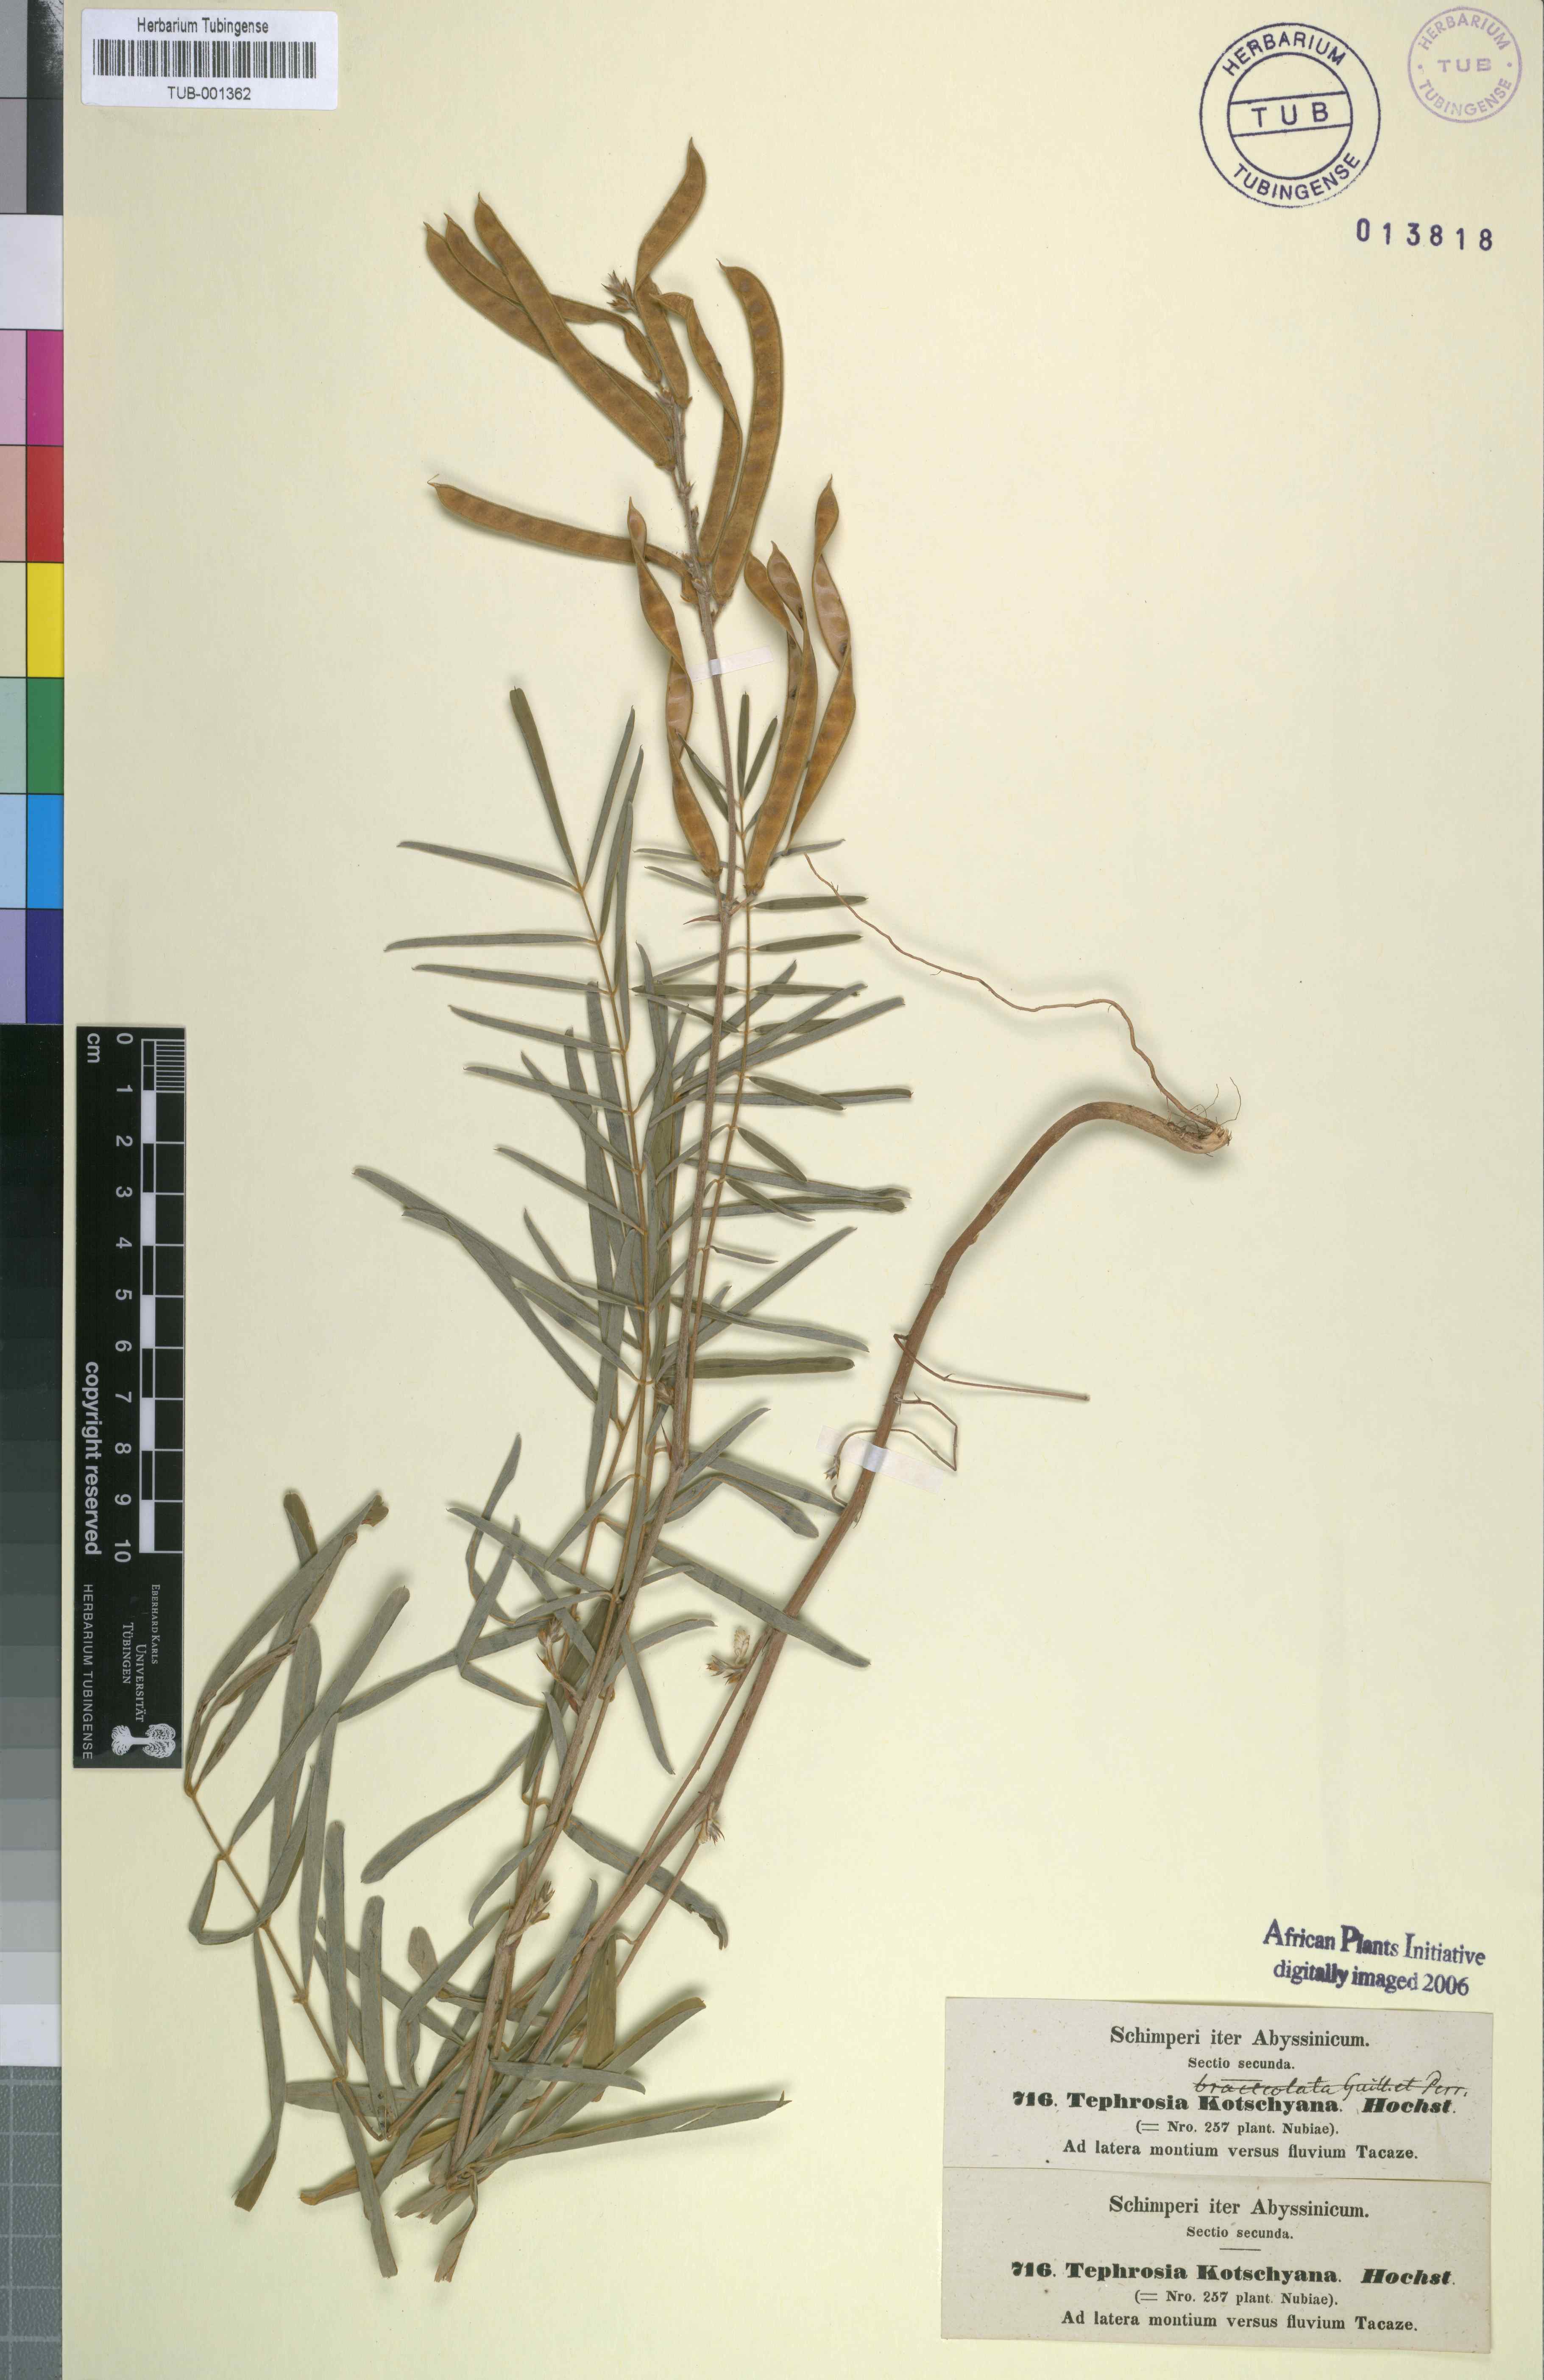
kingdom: Plantae
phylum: Tracheophyta
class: Magnoliopsida
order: Fabales
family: Fabaceae
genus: Tephrosia
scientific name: Tephrosia bracteolata
